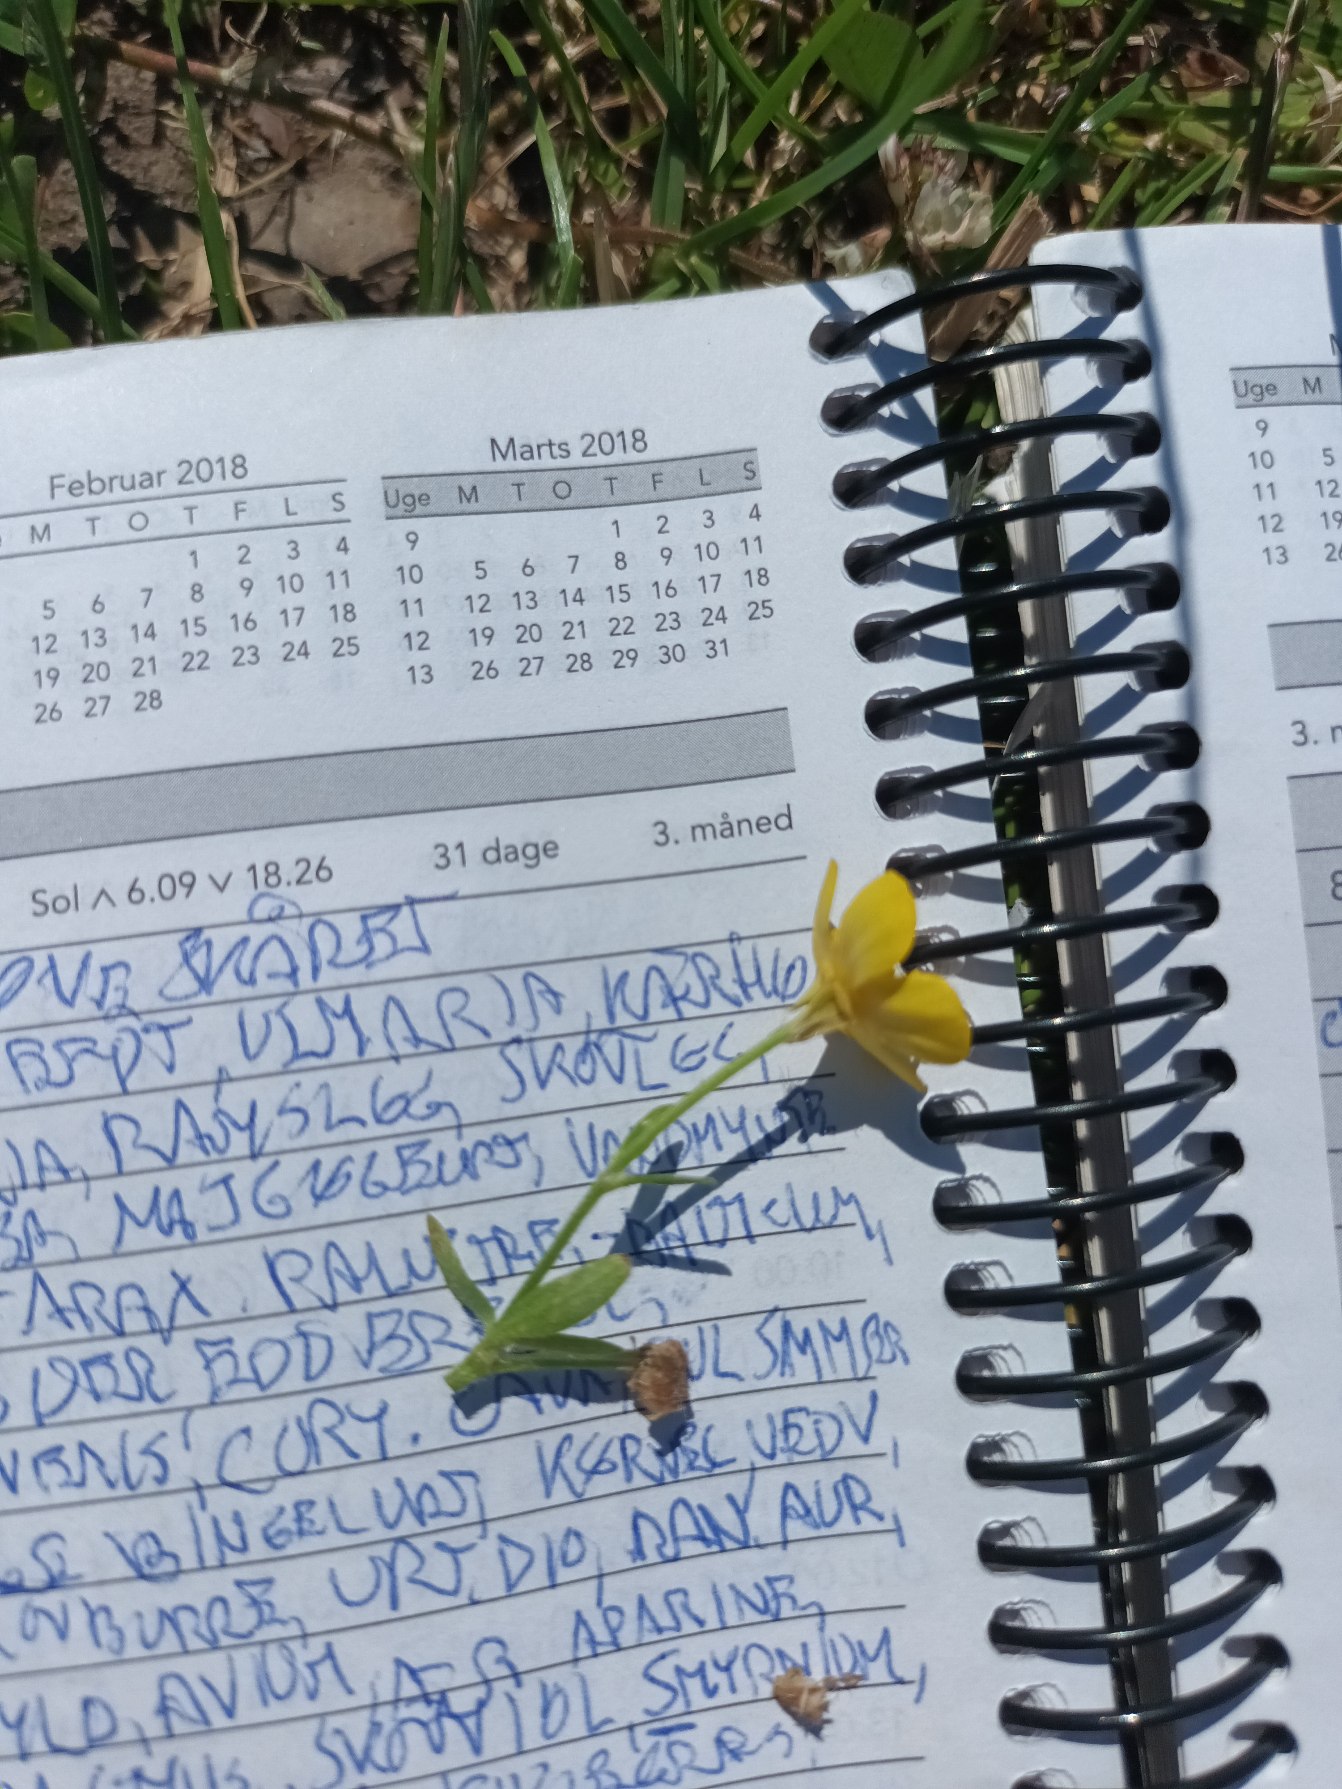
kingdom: Plantae
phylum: Tracheophyta
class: Magnoliopsida
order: Ranunculales
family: Ranunculaceae
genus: Ranunculus
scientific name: Ranunculus sardous
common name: Stivhåret ranunkel
